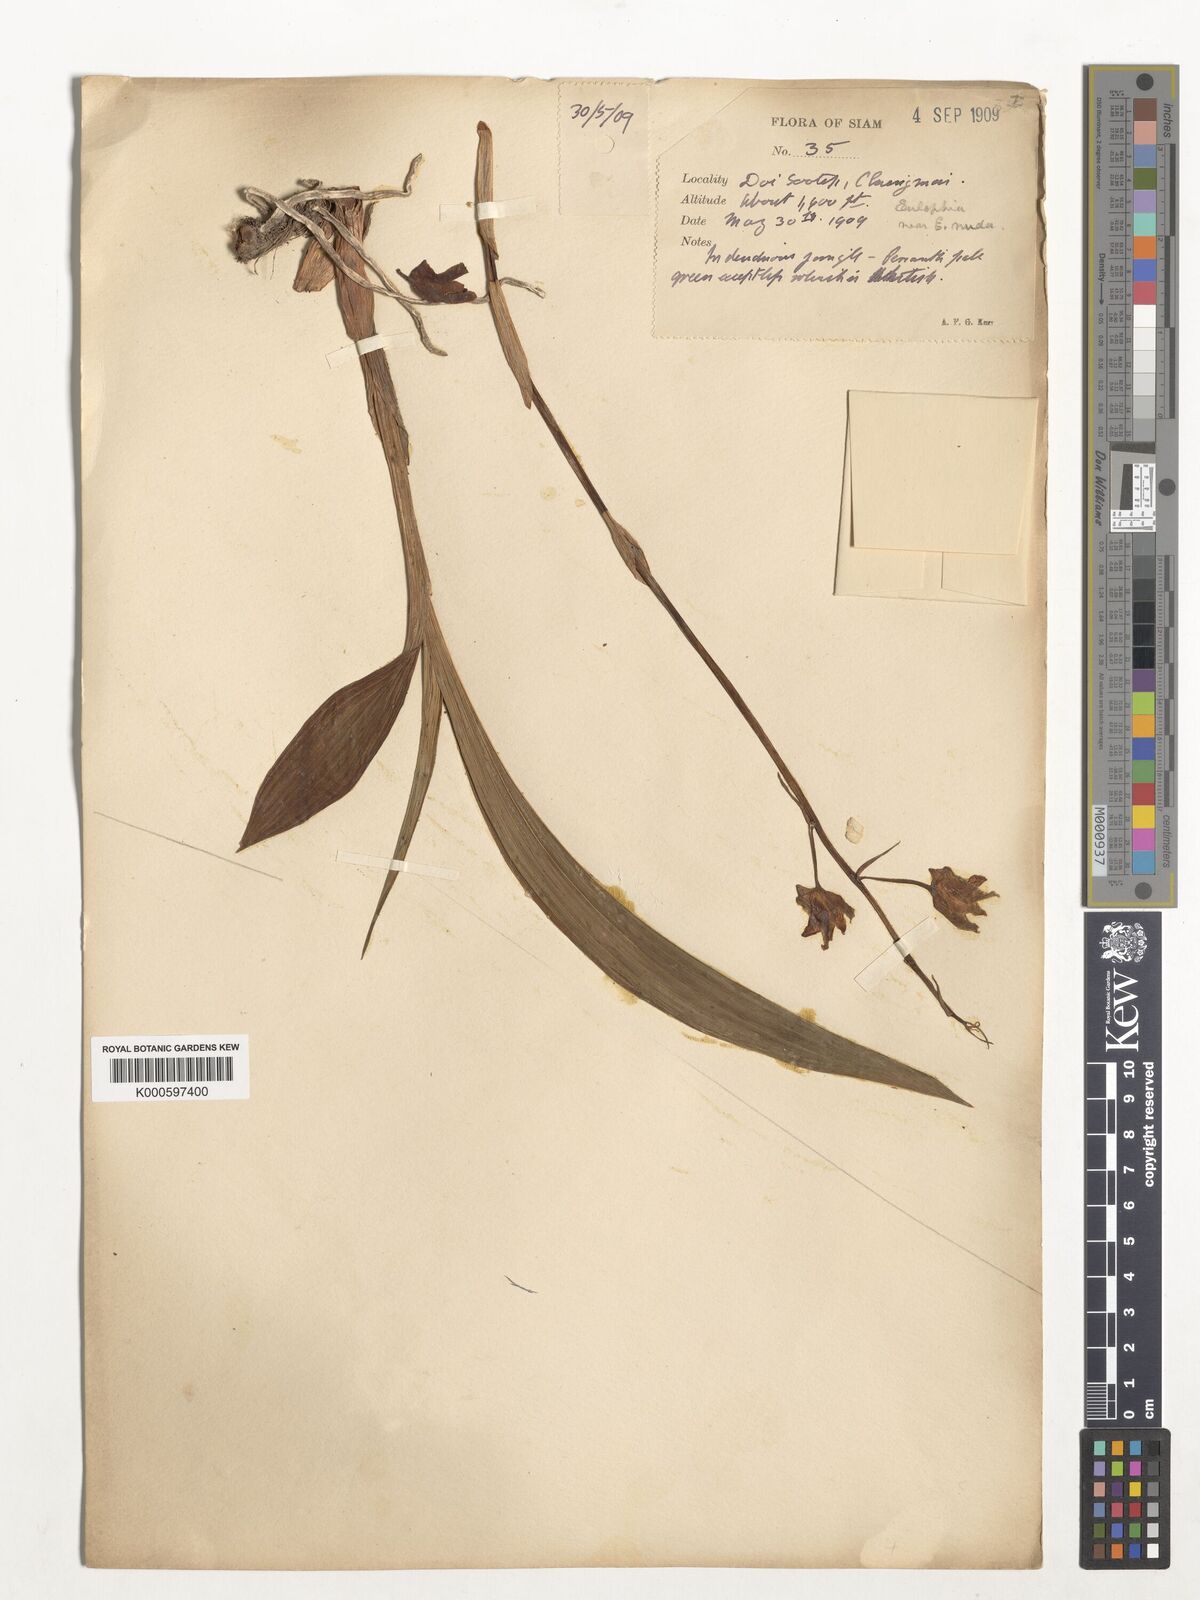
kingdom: Plantae
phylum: Tracheophyta
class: Liliopsida
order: Asparagales
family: Orchidaceae
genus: Eulophia
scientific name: Eulophia nuda
